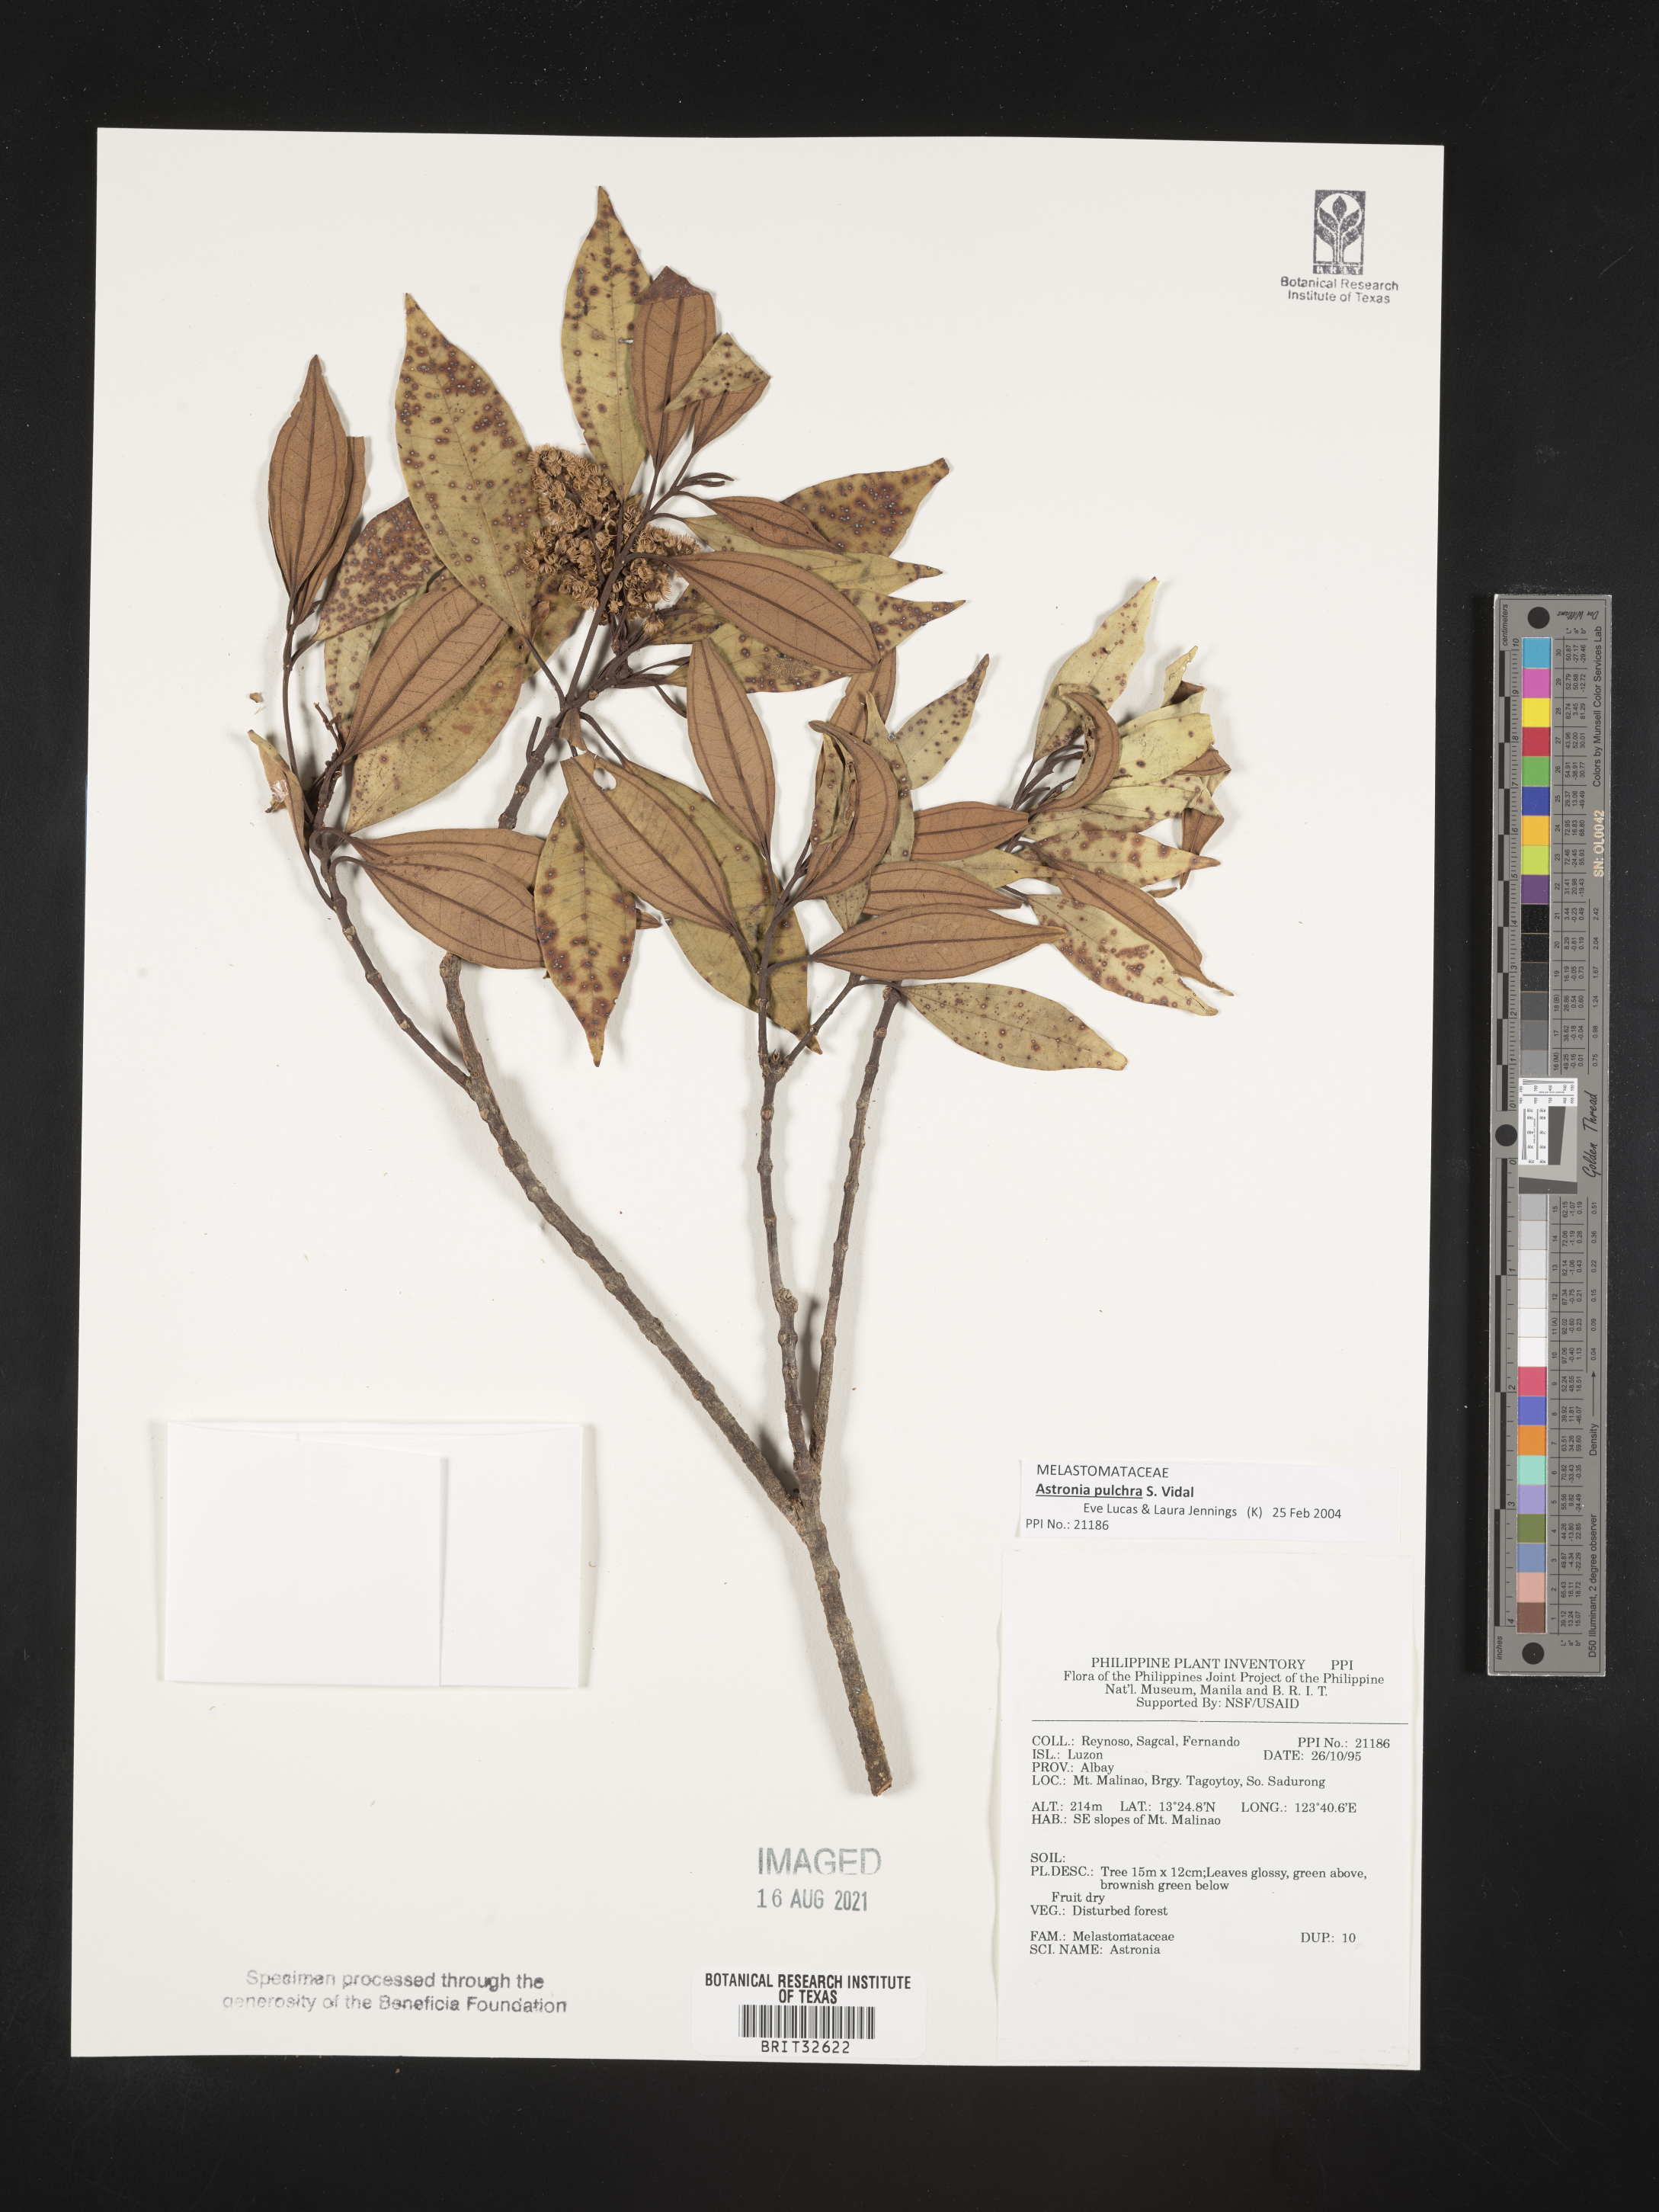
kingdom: Plantae
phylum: Tracheophyta
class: Magnoliopsida
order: Myrtales
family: Melastomataceae
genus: Astronia
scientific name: Astronia
